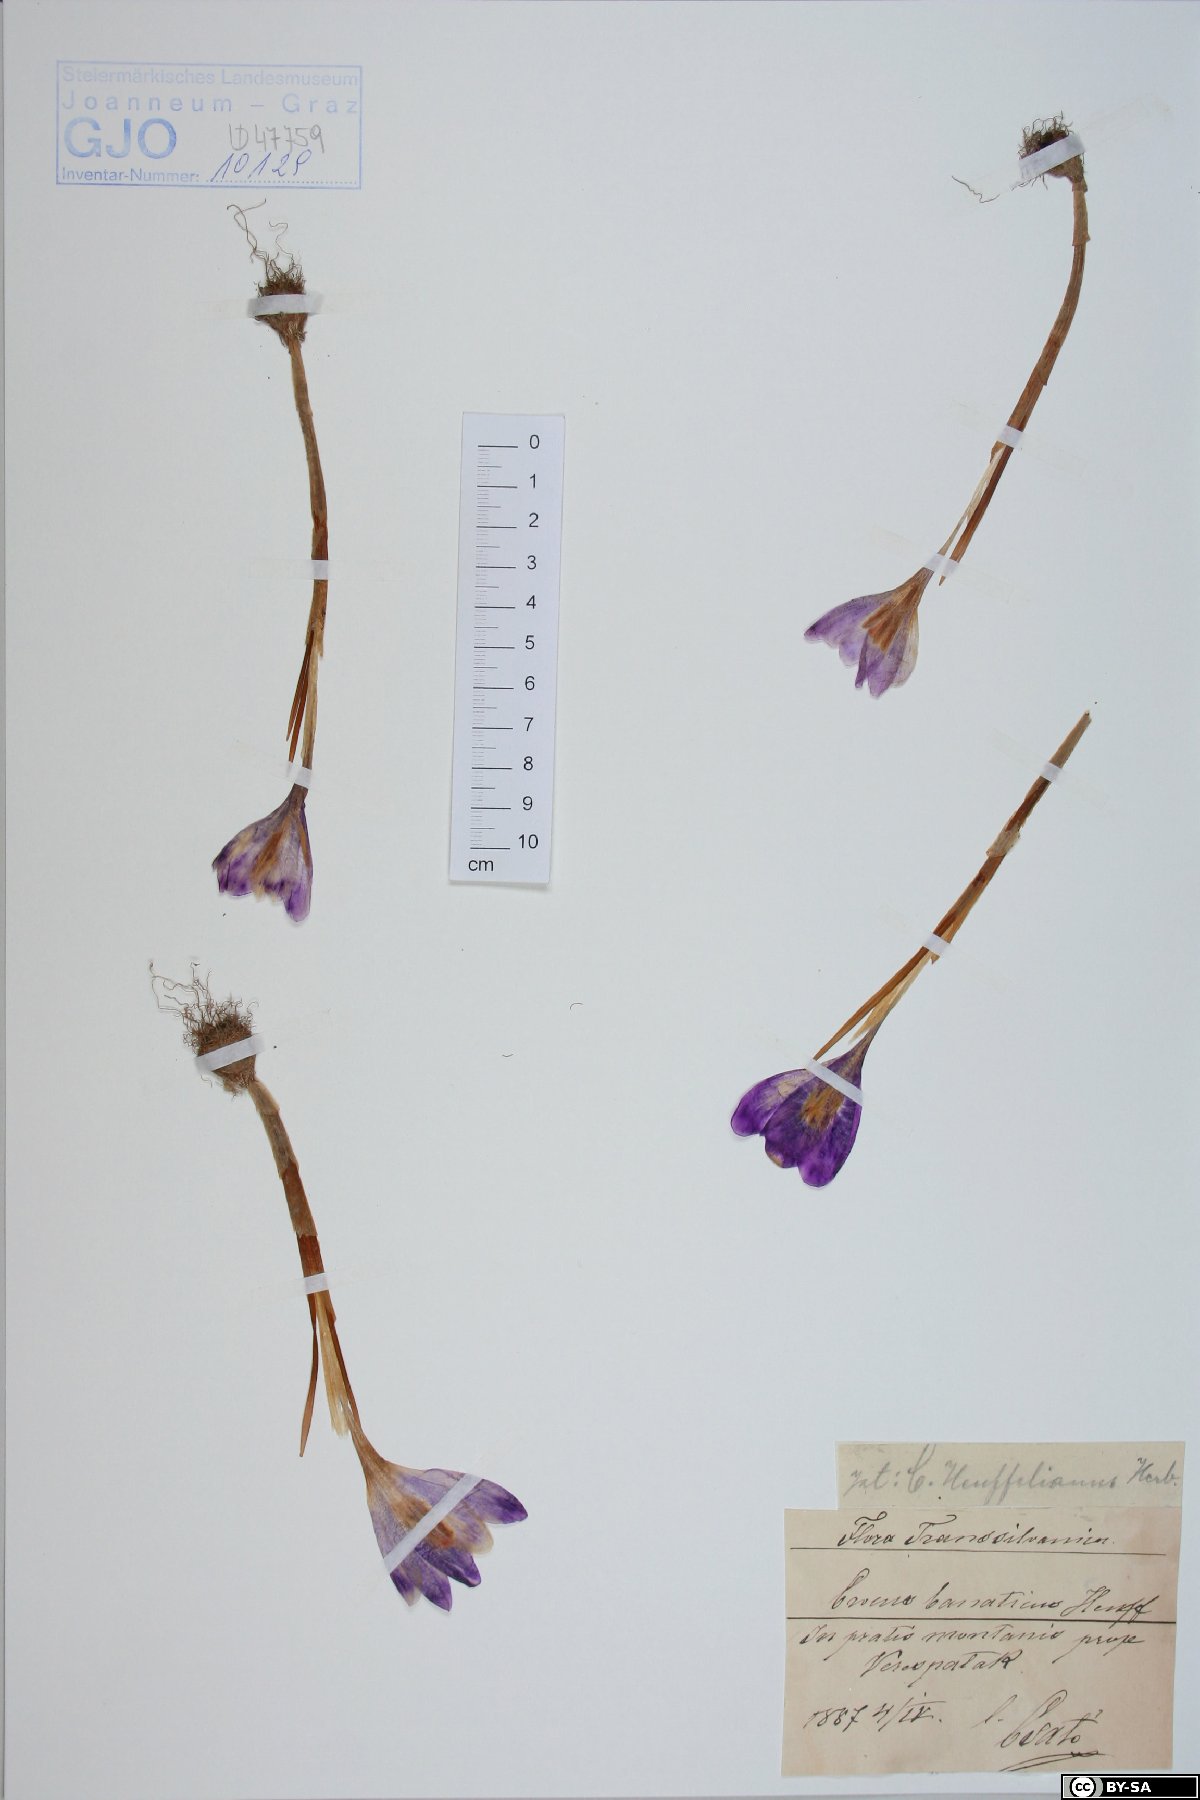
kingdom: Plantae
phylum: Tracheophyta
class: Liliopsida
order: Asparagales
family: Iridaceae
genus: Crocus
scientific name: Crocus heuffelianus
